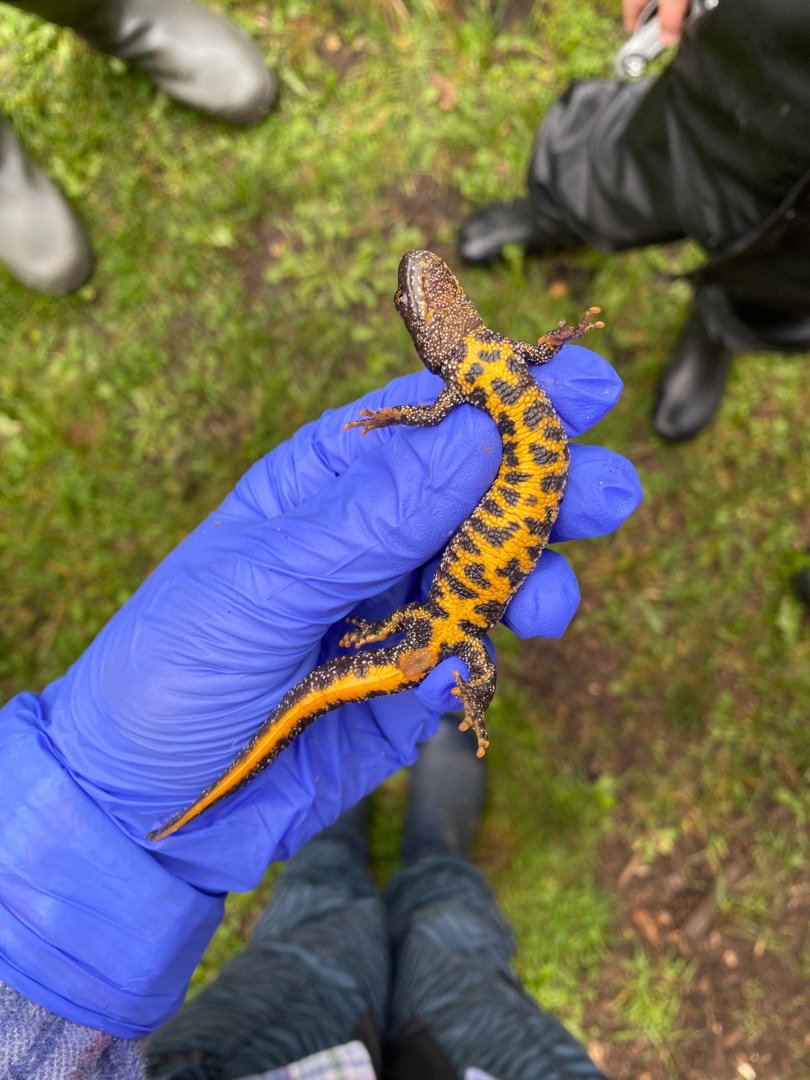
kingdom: Animalia
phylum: Chordata
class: Amphibia
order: Caudata
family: Salamandridae
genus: Triturus
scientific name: Triturus cristatus
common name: Stor vandsalamander
